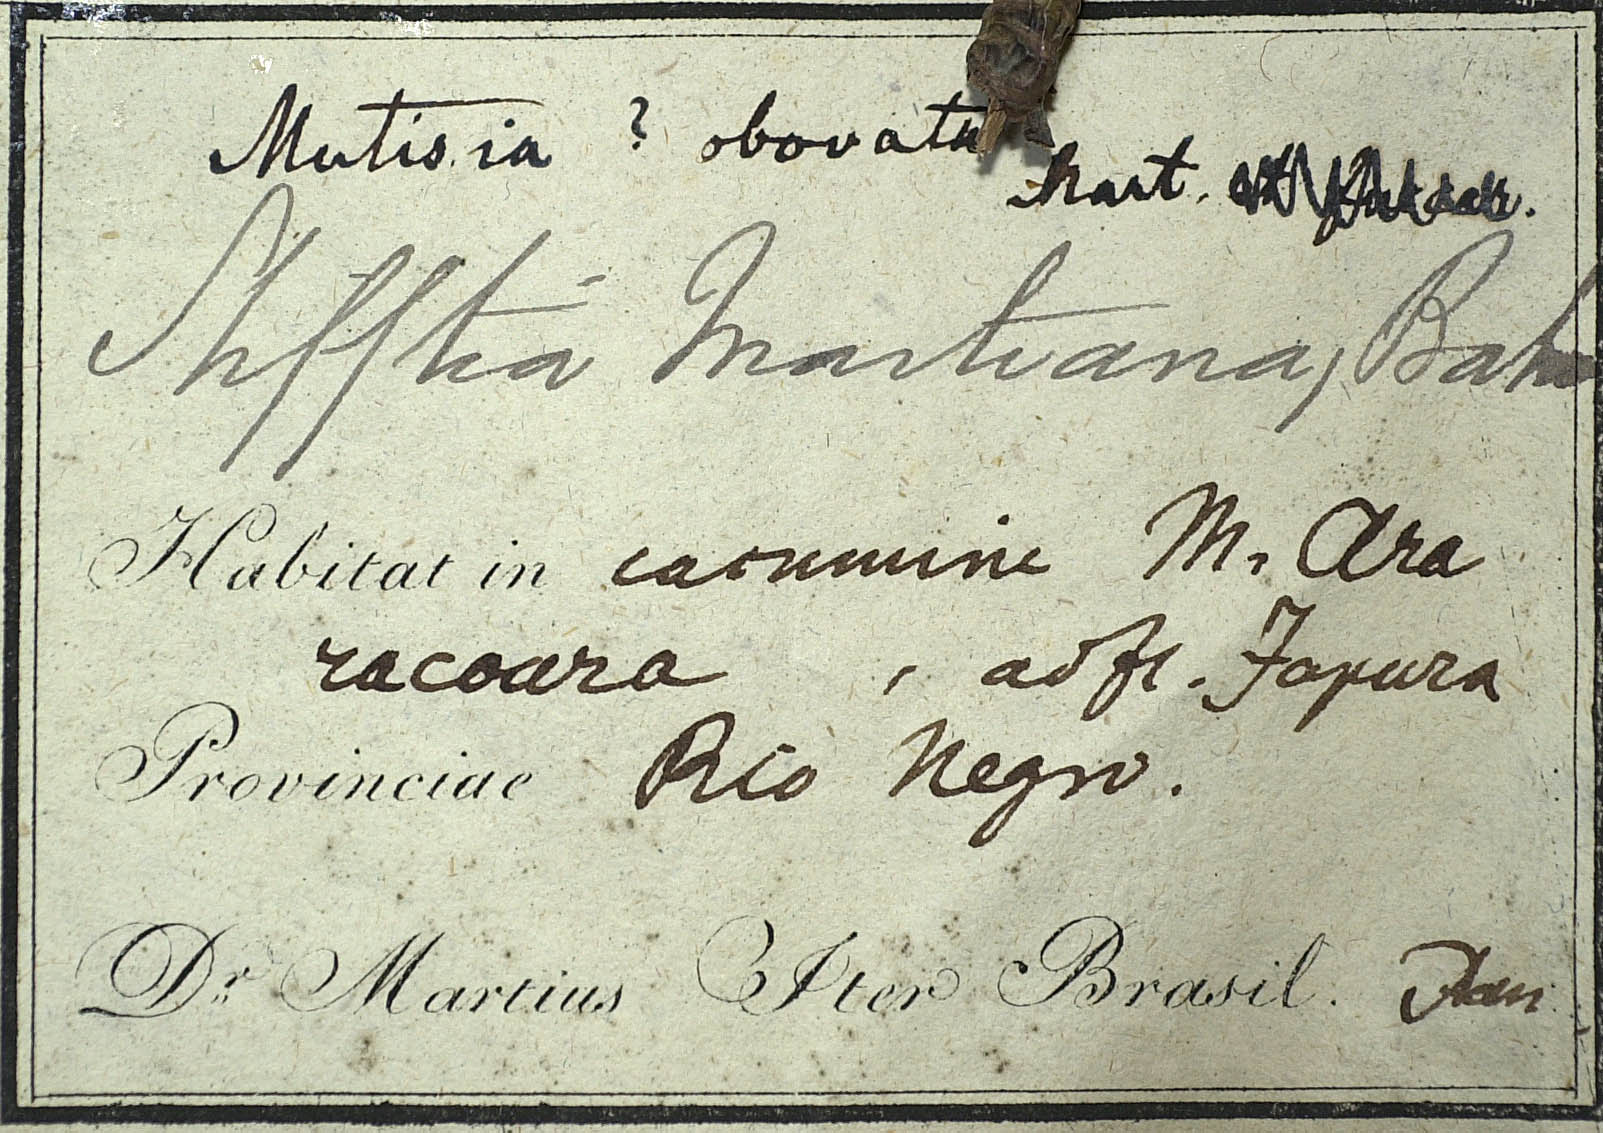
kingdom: Plantae
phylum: Tracheophyta
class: Magnoliopsida
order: Asterales
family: Asteraceae
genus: Gongylolepis
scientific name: Gongylolepis martiana
